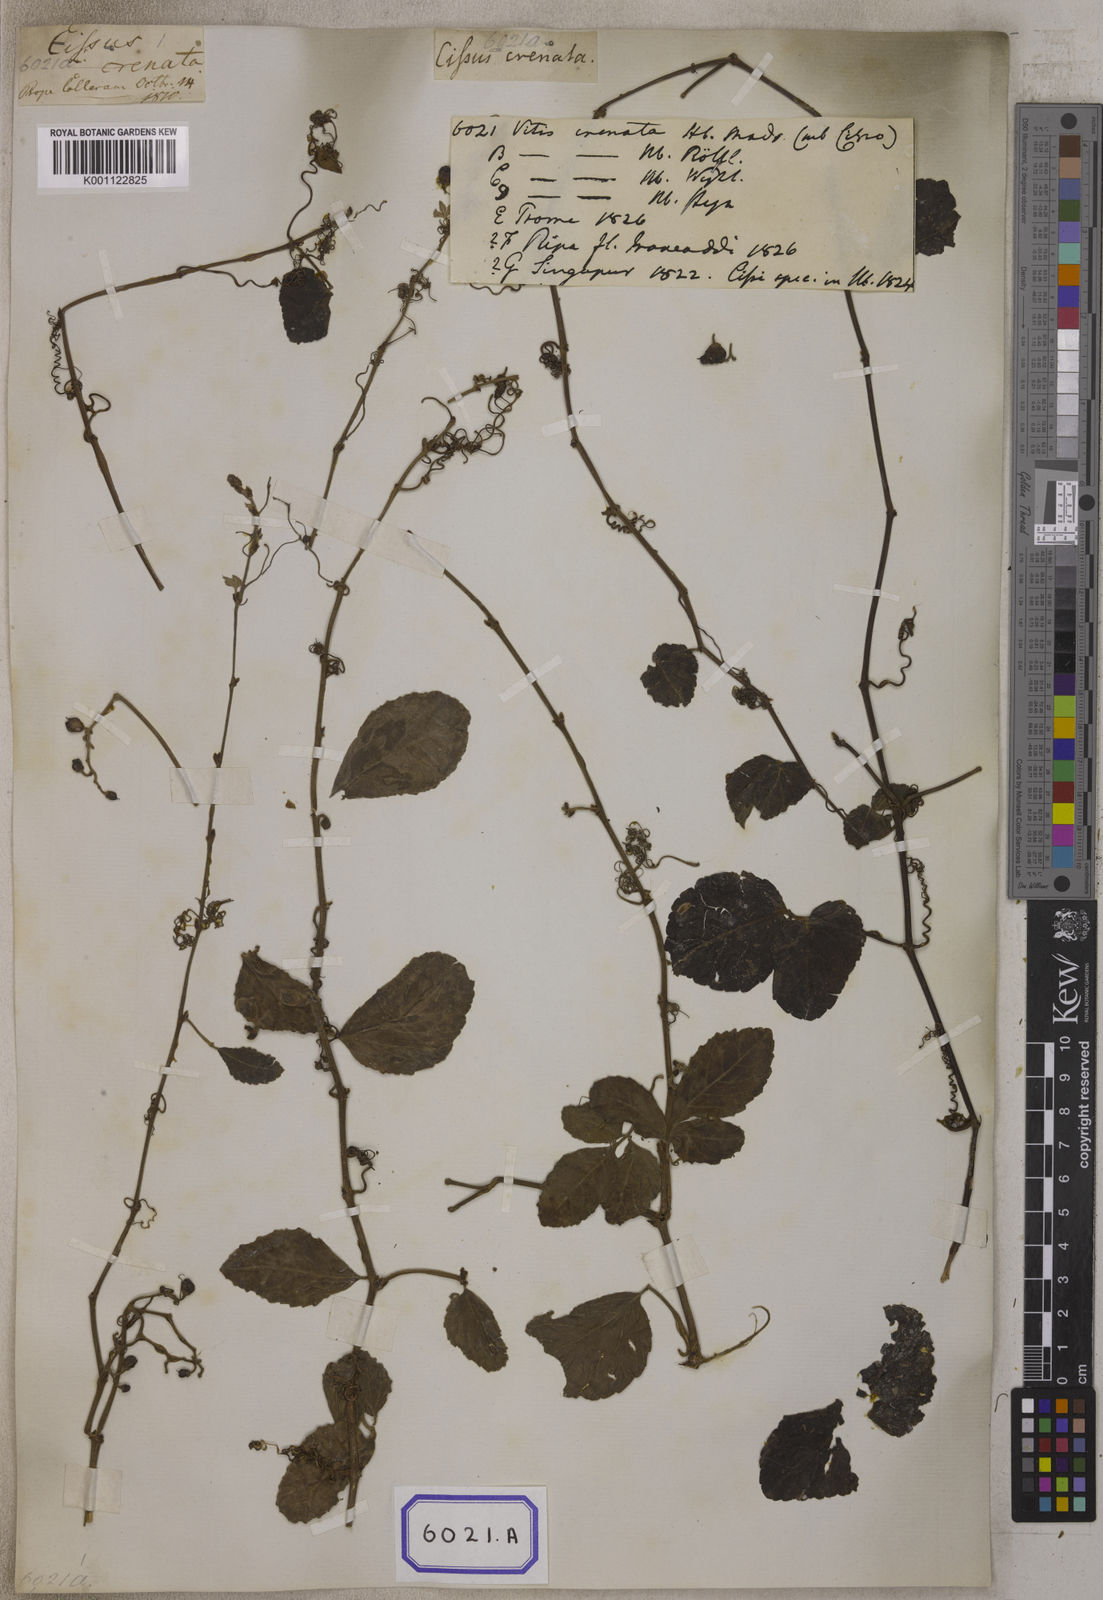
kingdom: Plantae
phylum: Tracheophyta
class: Magnoliopsida
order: Vitales
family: Vitaceae
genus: Causonis
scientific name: Causonis trifolia
